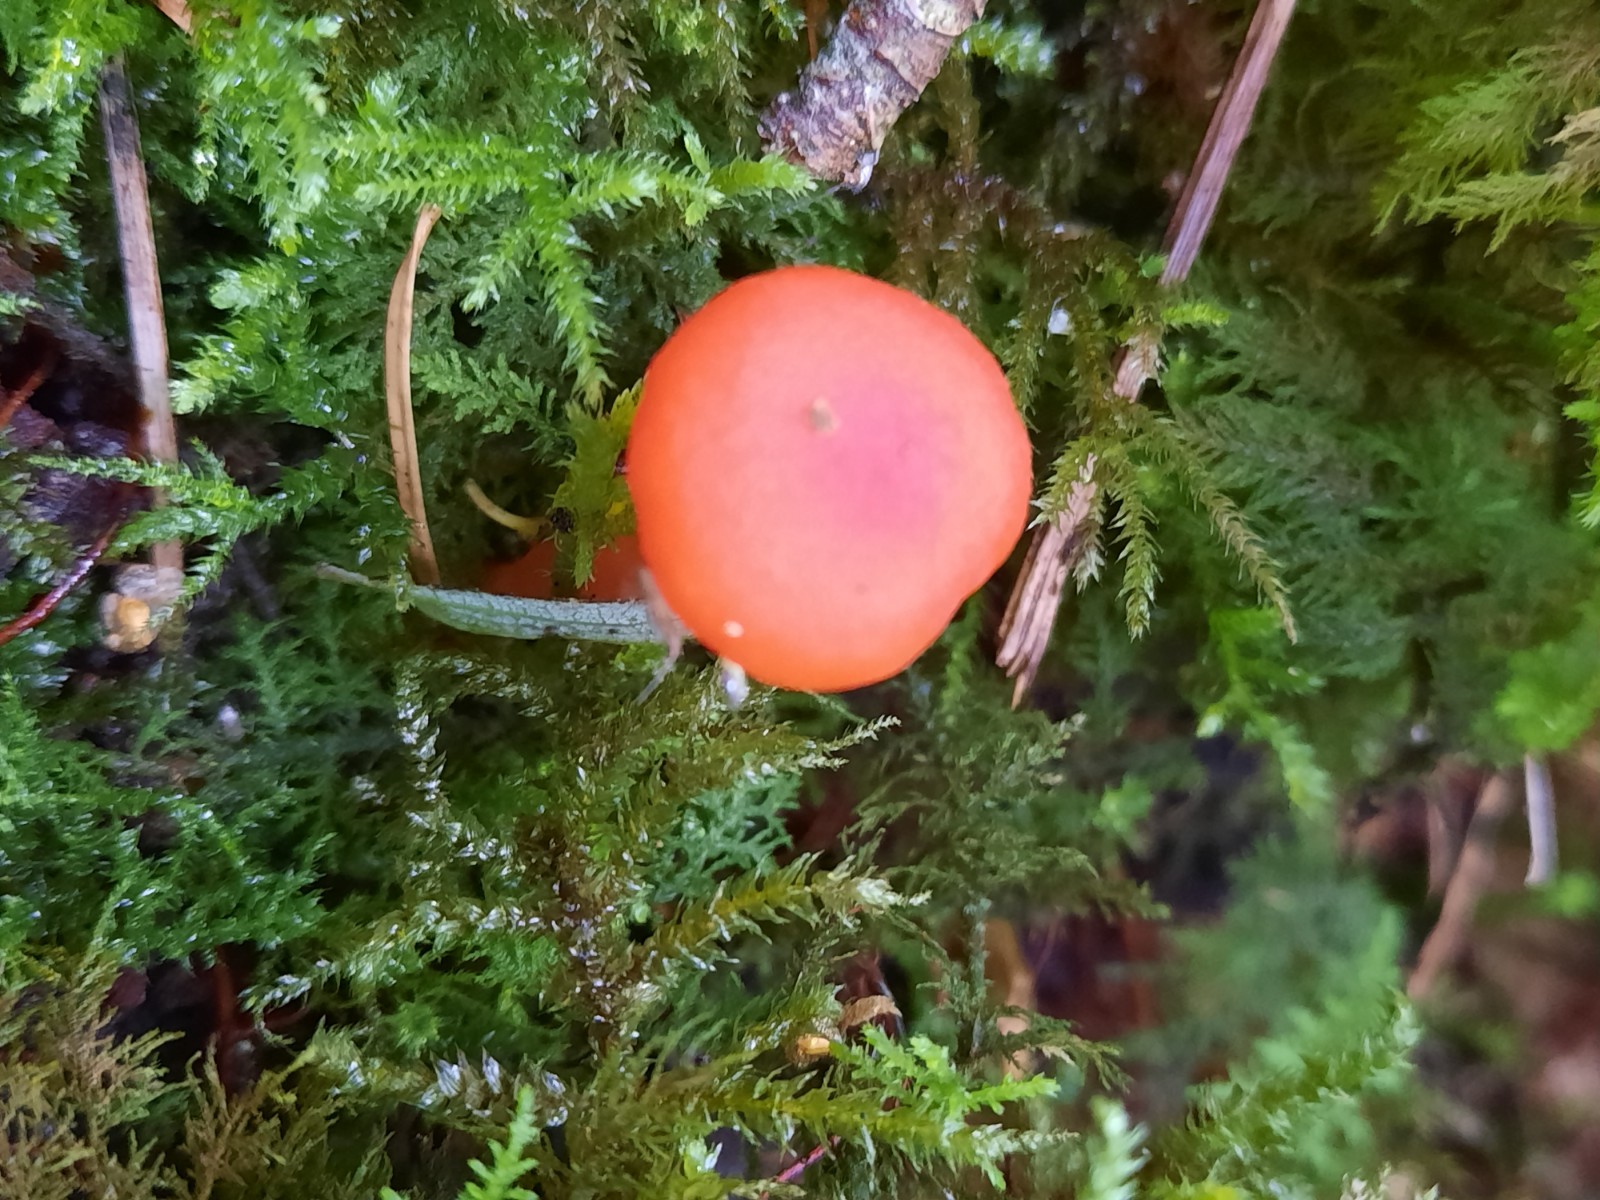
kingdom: Fungi
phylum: Basidiomycota
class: Agaricomycetes
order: Agaricales
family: Hygrophoraceae
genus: Hygrocybe
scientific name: Hygrocybe reidii
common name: honning-vokshat
